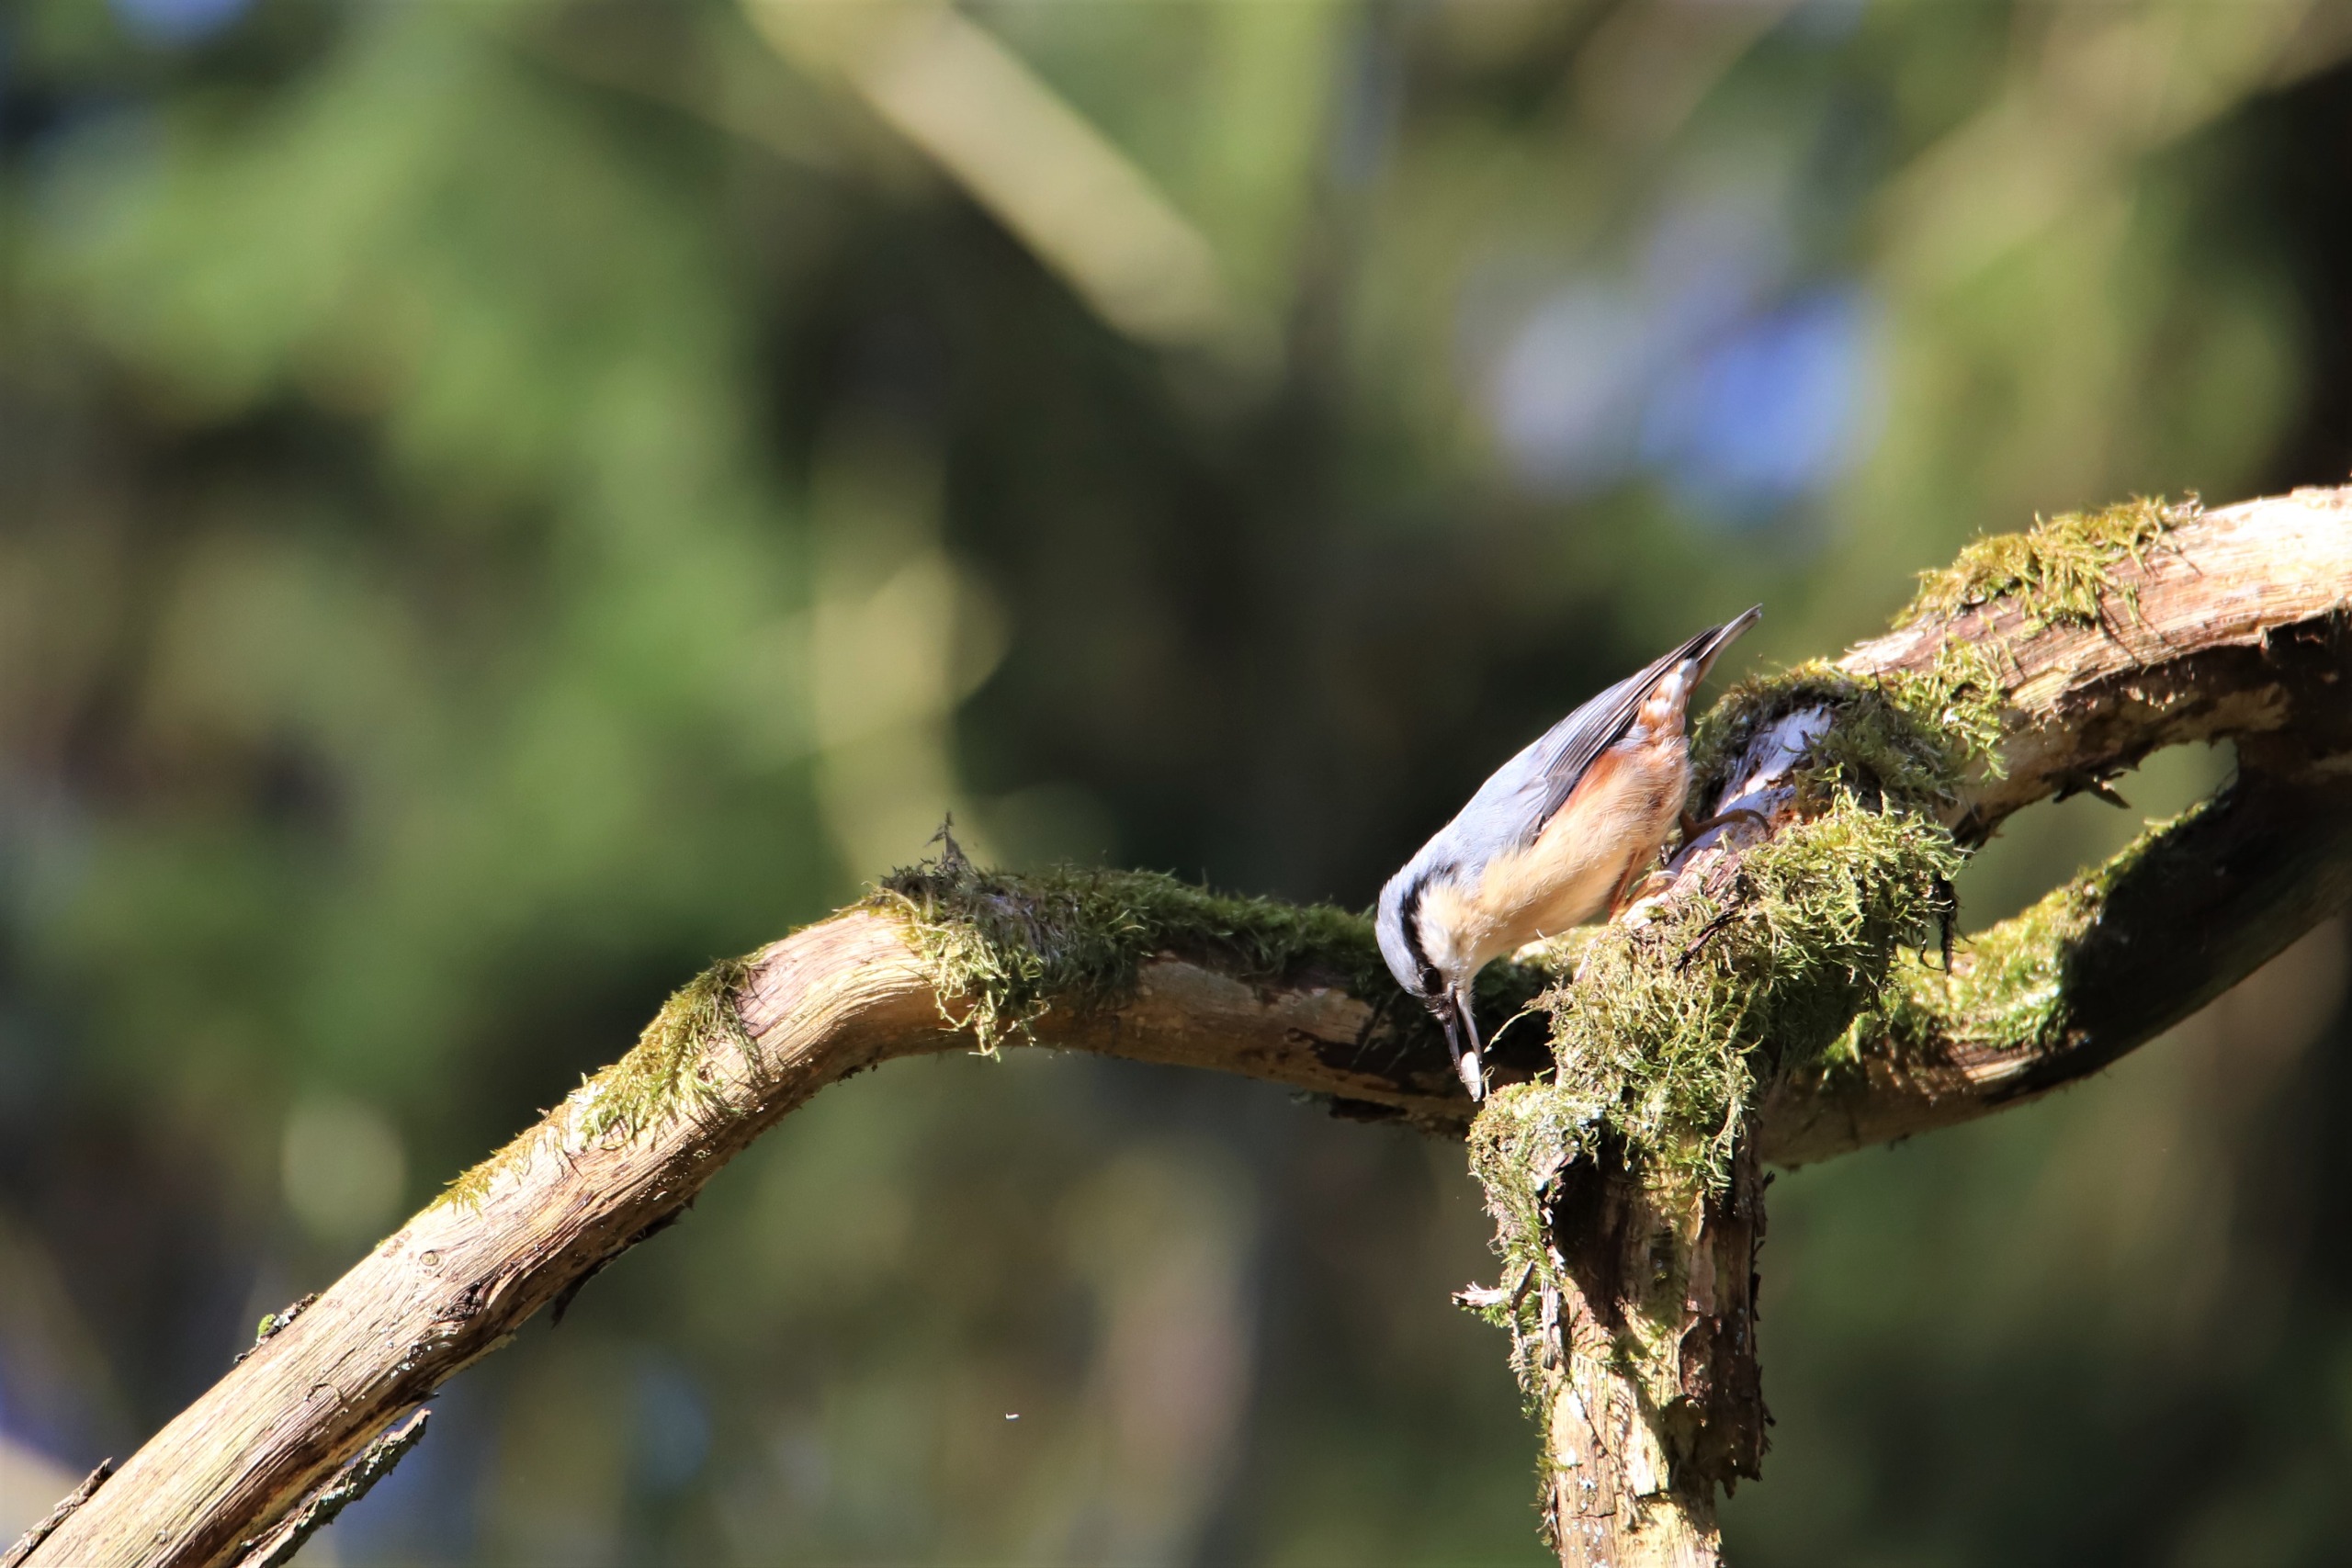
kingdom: Animalia
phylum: Chordata
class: Aves
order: Passeriformes
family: Sittidae
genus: Sitta
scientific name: Sitta europaea
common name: Spætmejse
